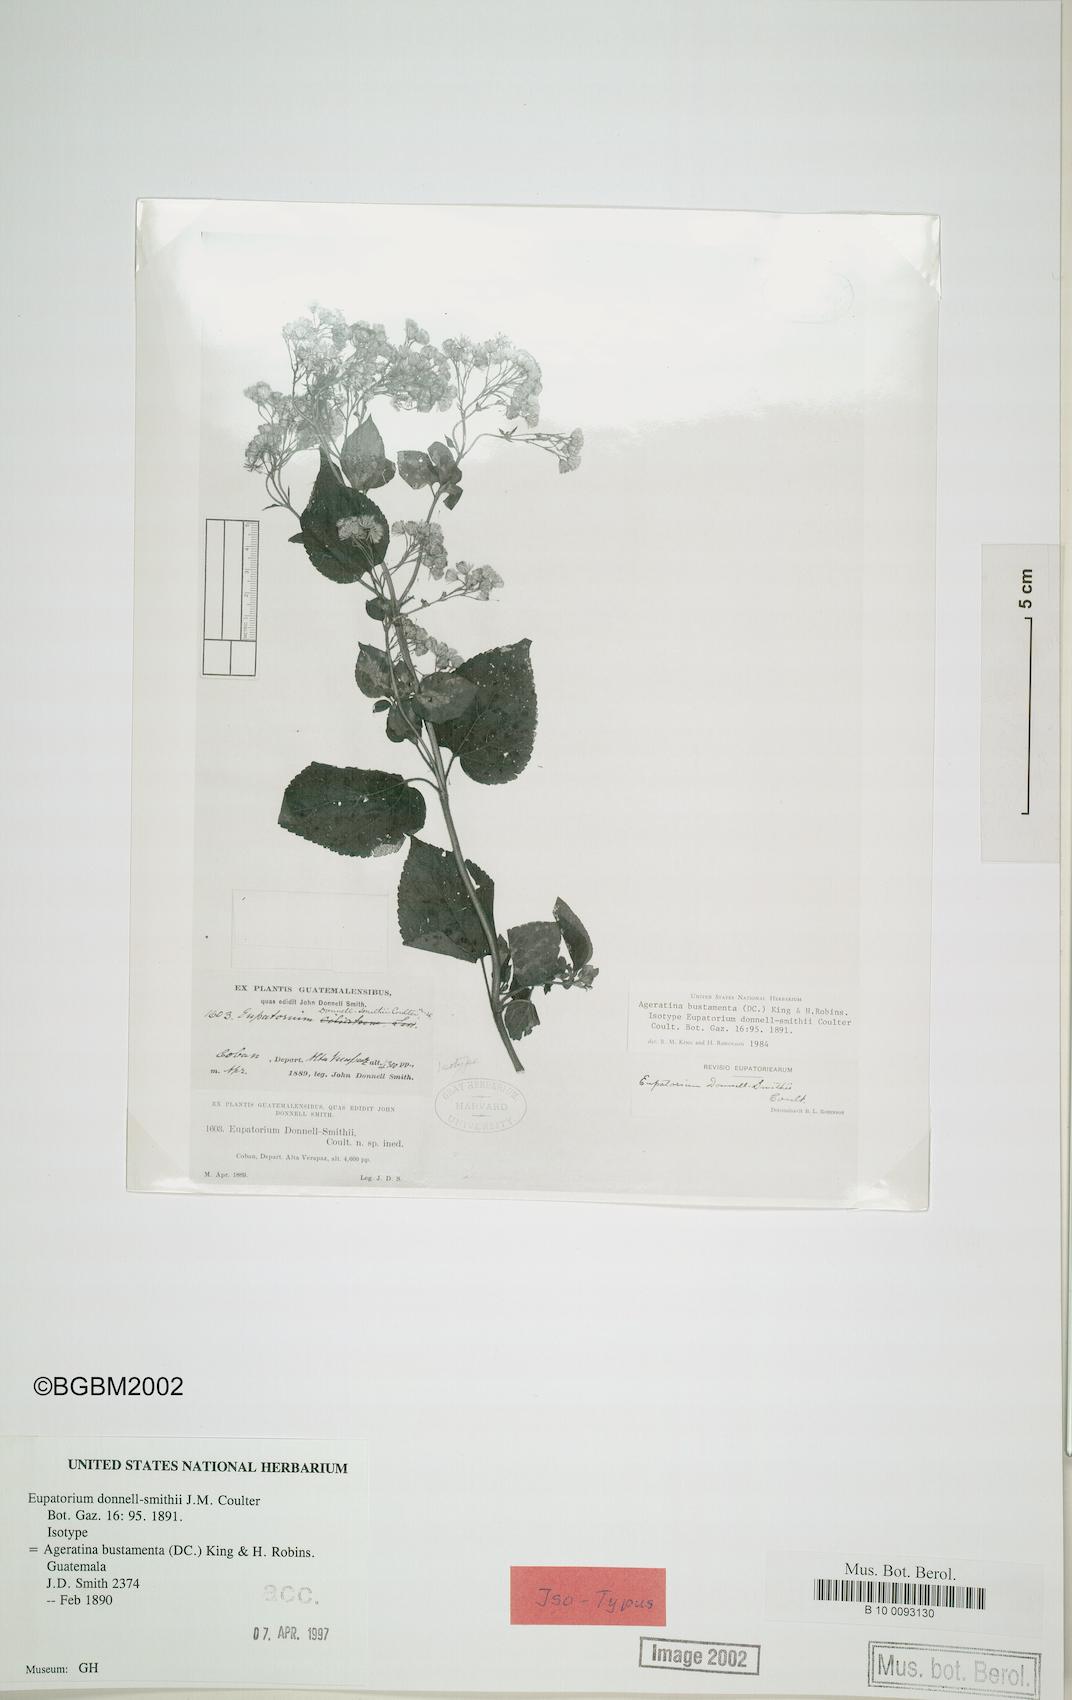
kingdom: Plantae
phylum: Tracheophyta
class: Magnoliopsida
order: Asterales
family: Asteraceae
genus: Ageratina
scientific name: Ageratina bustamenta
